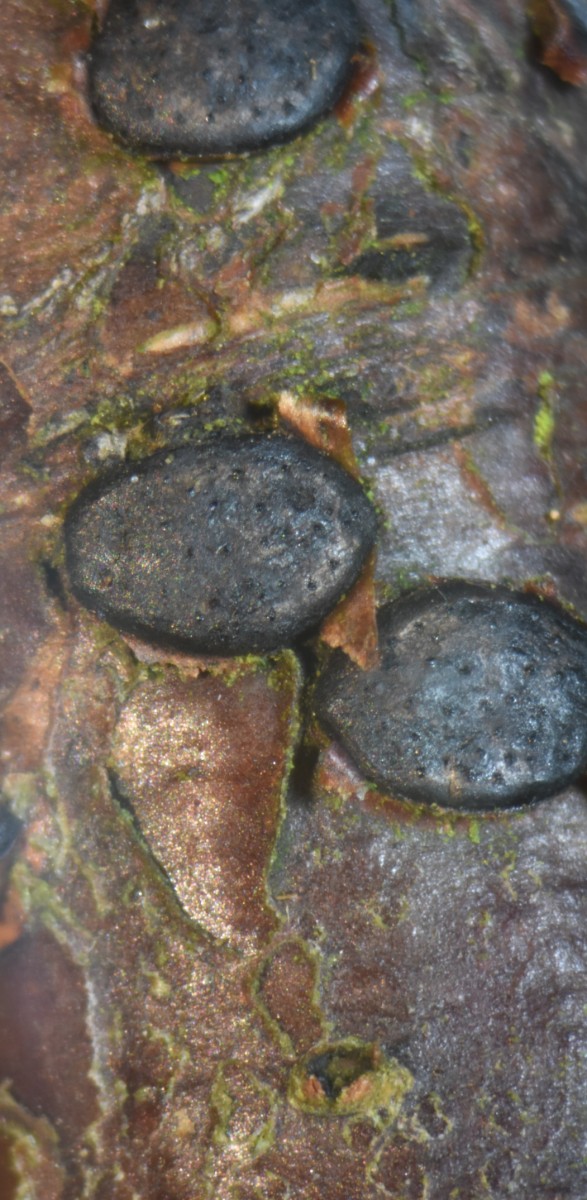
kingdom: Fungi
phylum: Ascomycota
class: Sordariomycetes
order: Xylariales
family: Diatrypaceae
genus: Diatrype
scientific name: Diatrype disciformis
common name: kant-kulskorpe
